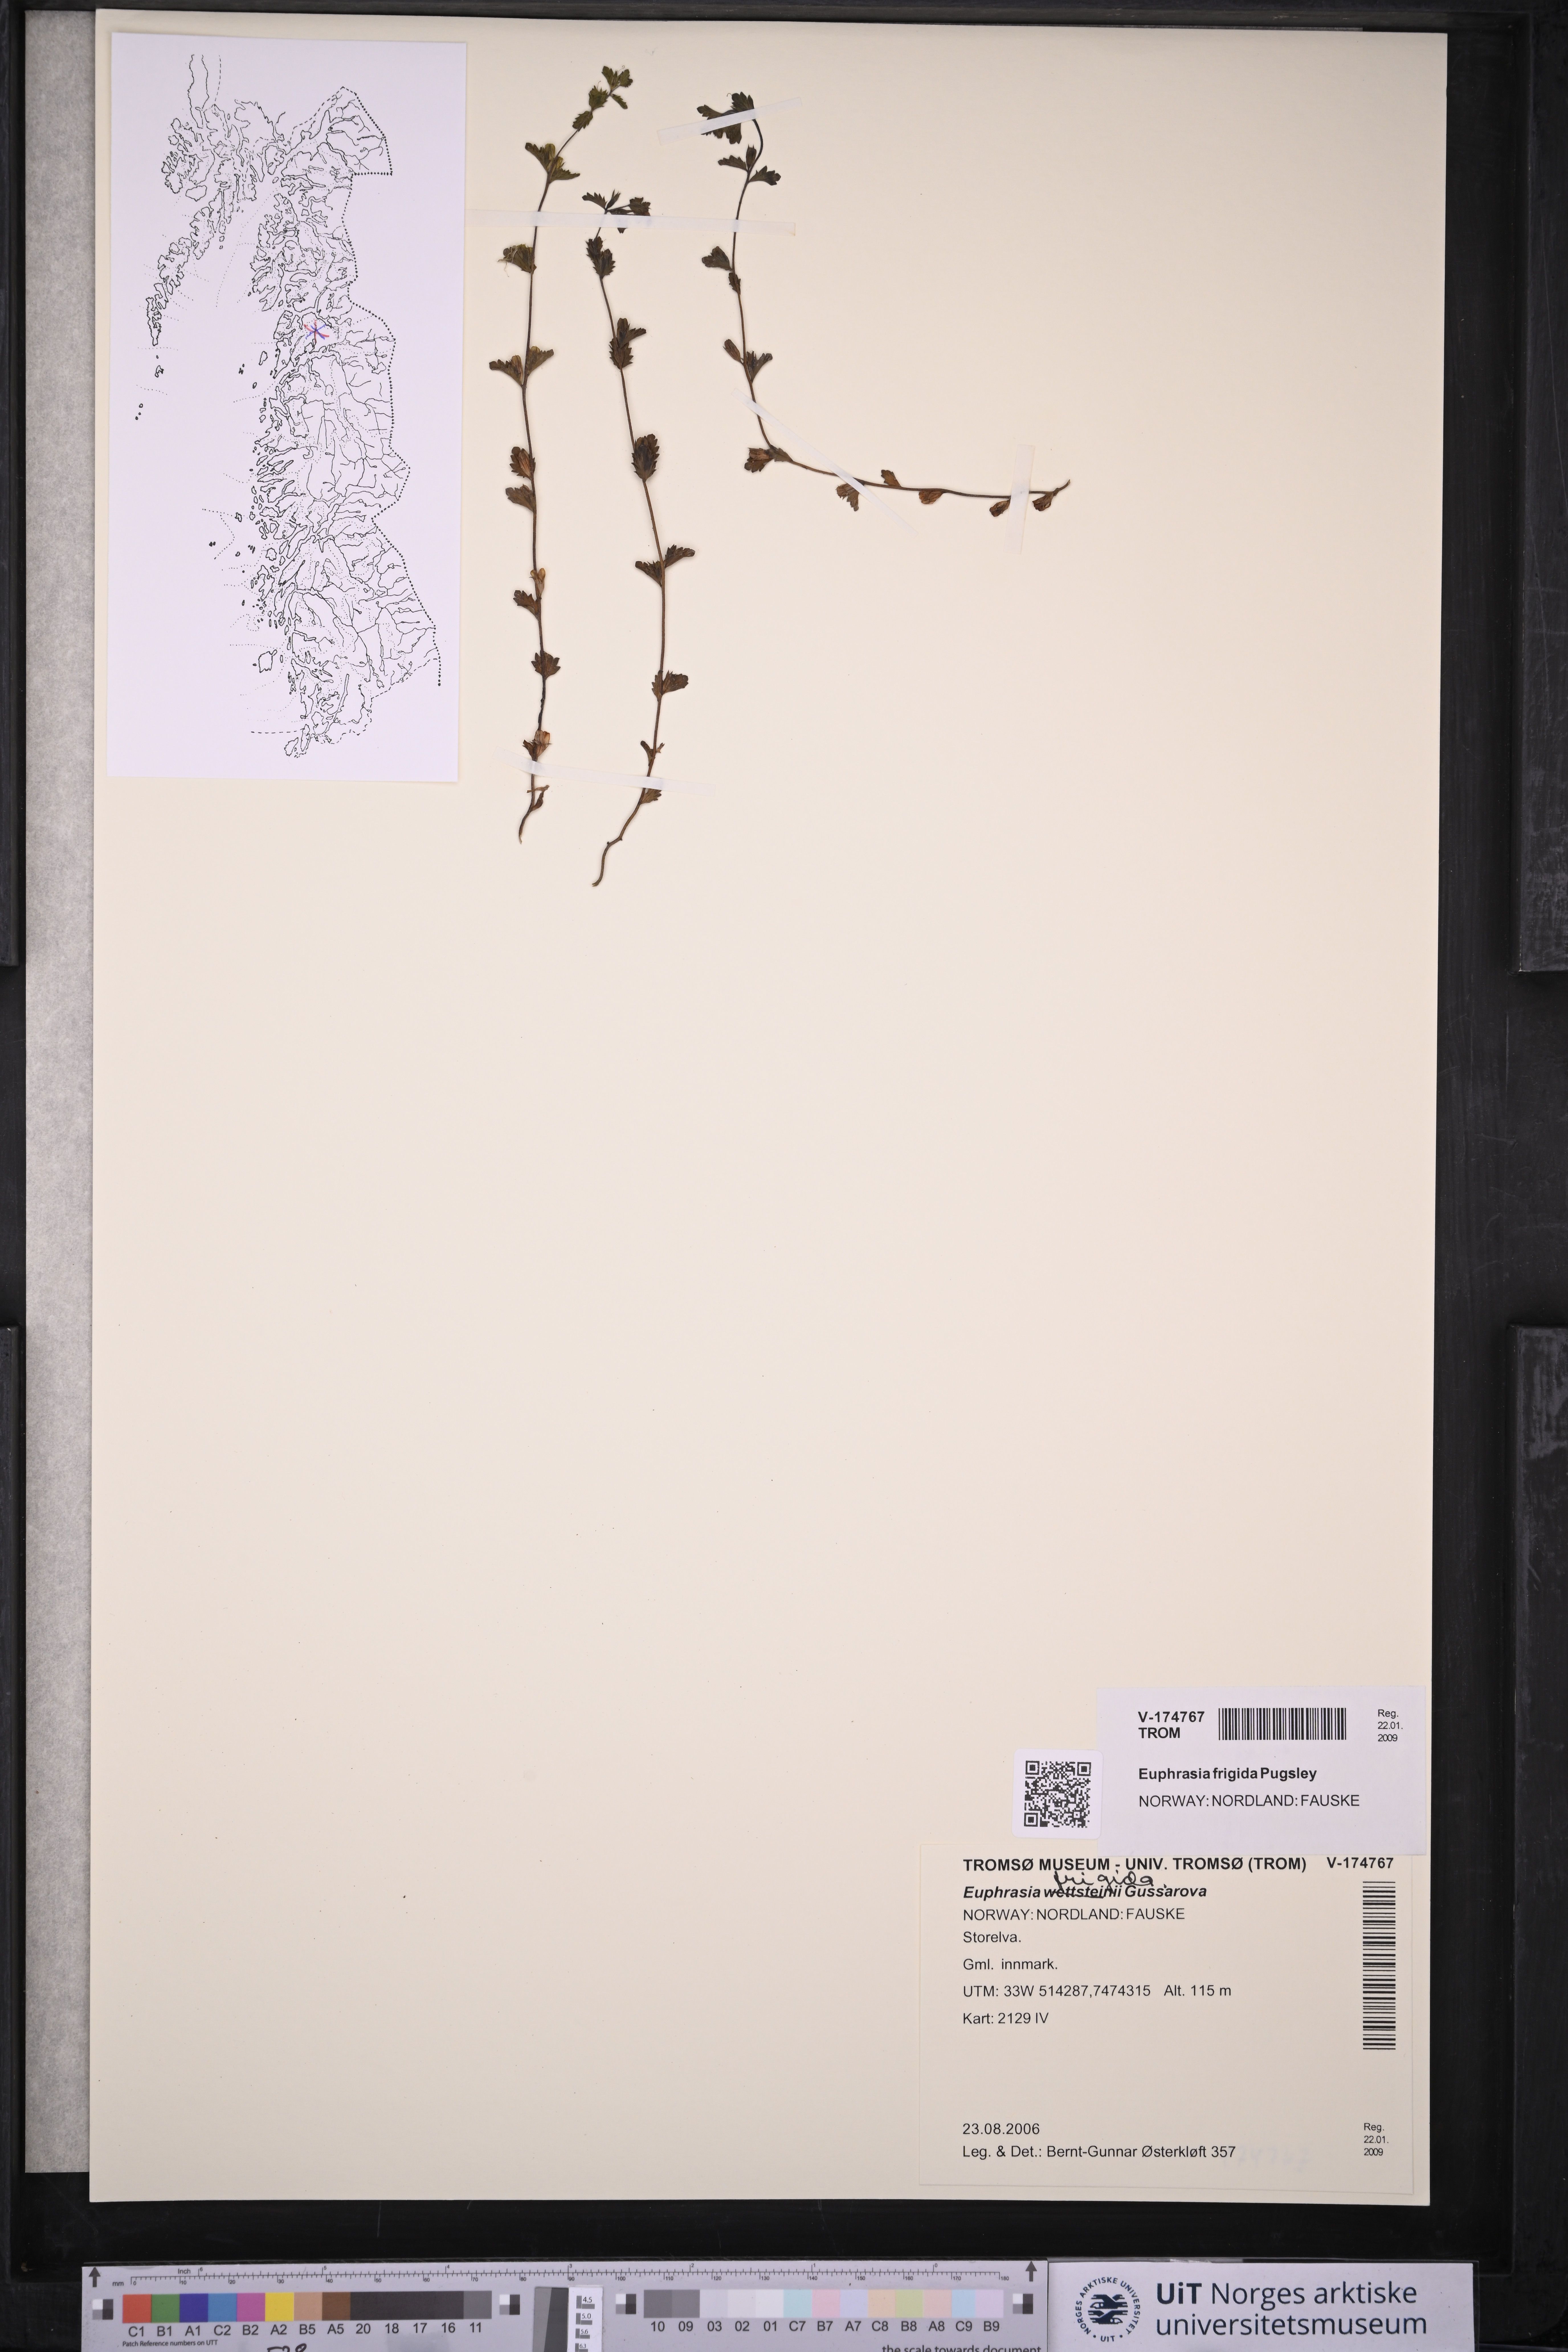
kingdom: Plantae
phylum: Tracheophyta
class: Magnoliopsida
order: Lamiales
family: Orobanchaceae
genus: Euphrasia
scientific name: Euphrasia wettsteinii
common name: Wettstein's eyebright
